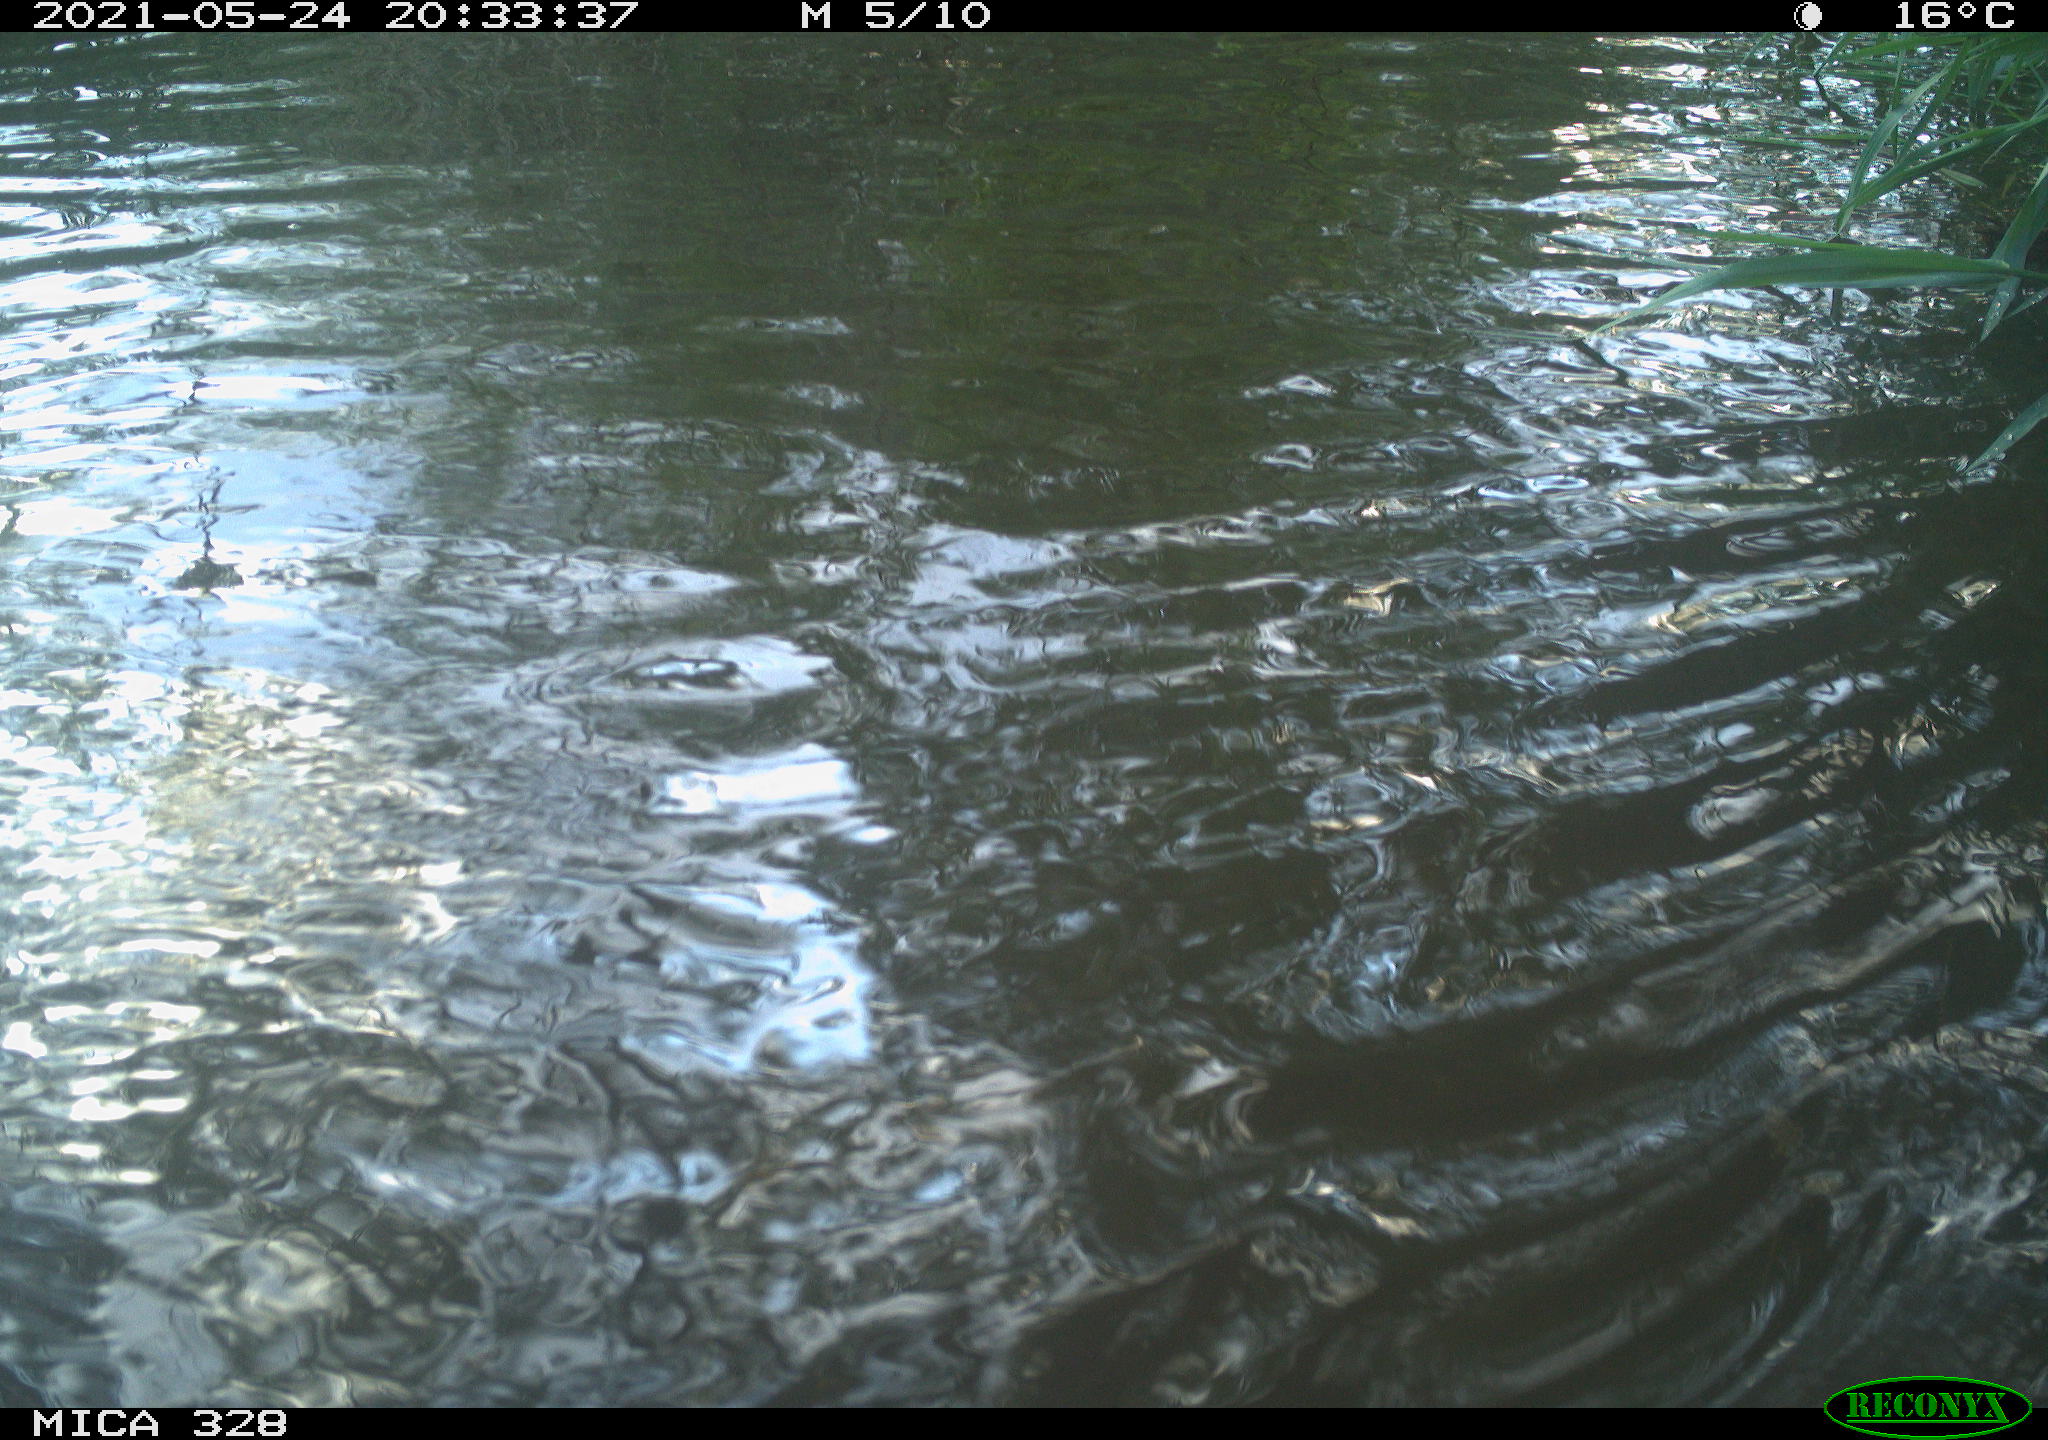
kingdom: Animalia
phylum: Chordata
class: Aves
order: Anseriformes
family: Anatidae
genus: Aix
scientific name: Aix galericulata
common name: Mandarin duck
